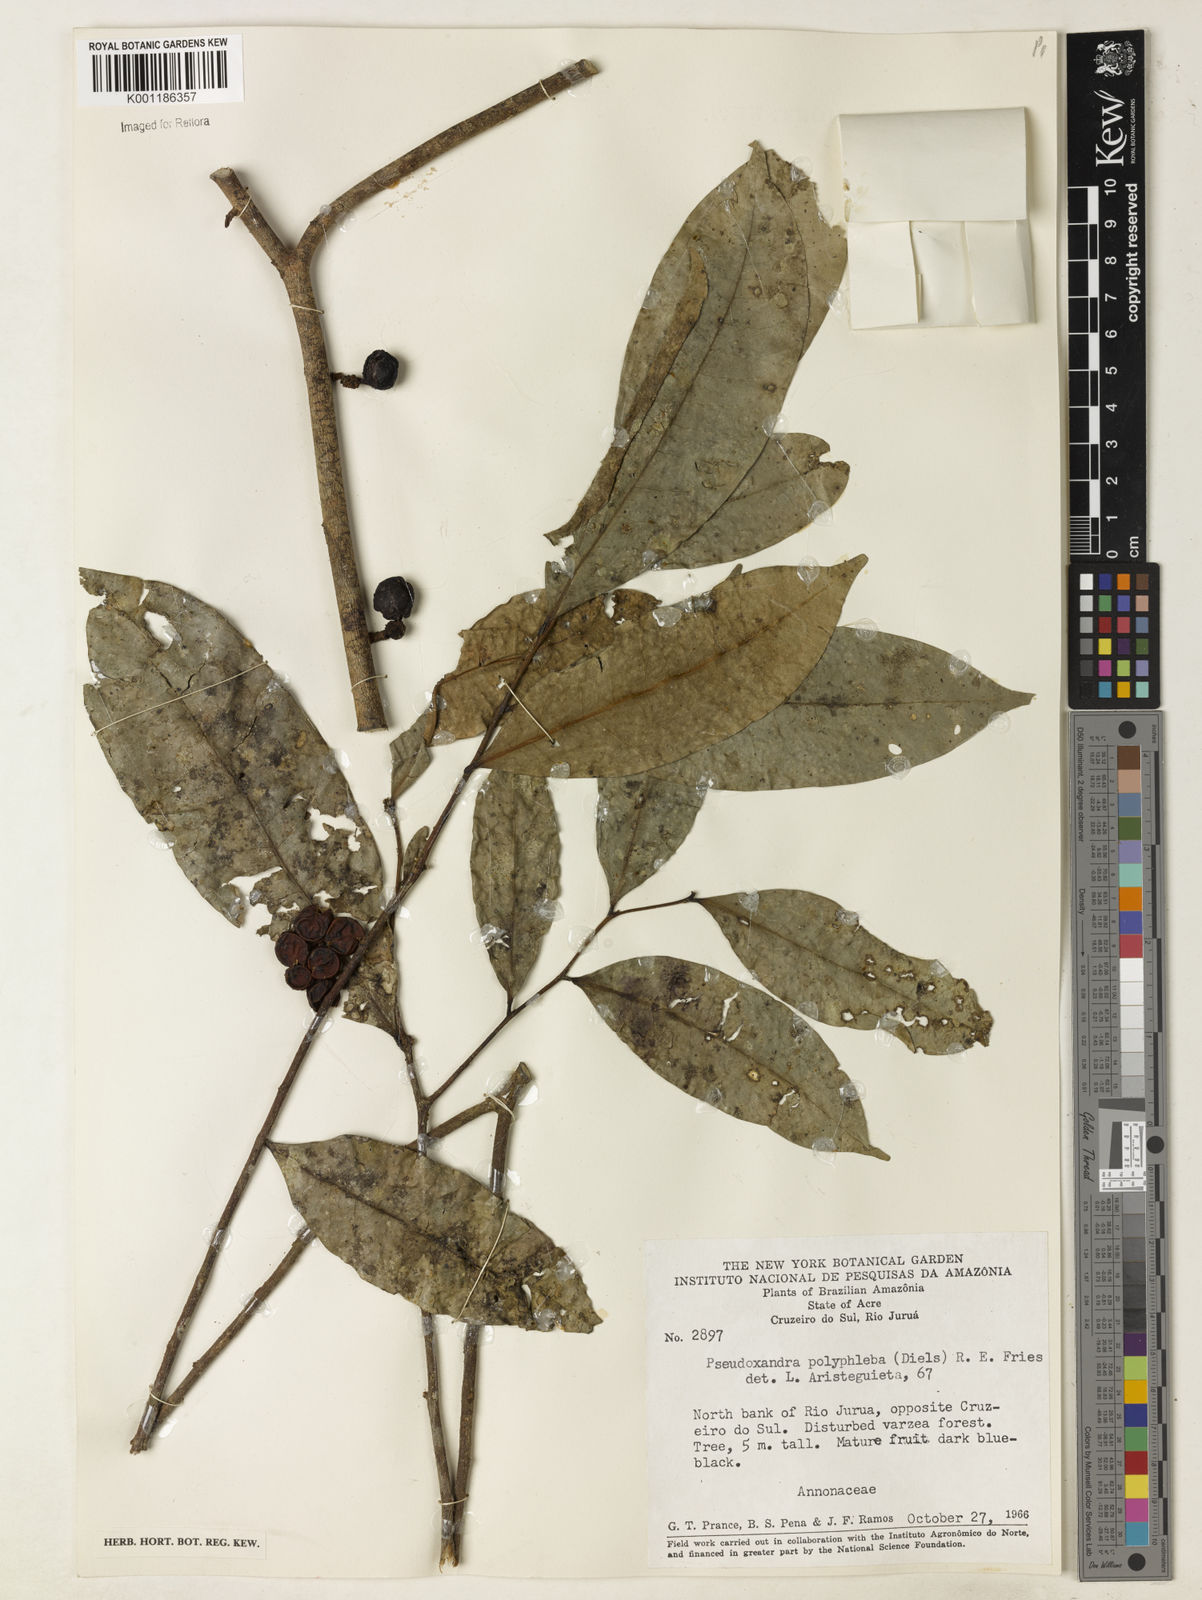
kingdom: Plantae
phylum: Tracheophyta
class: Magnoliopsida
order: Magnoliales
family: Annonaceae
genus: Pseudoxandra
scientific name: Pseudoxandra polyphleba
